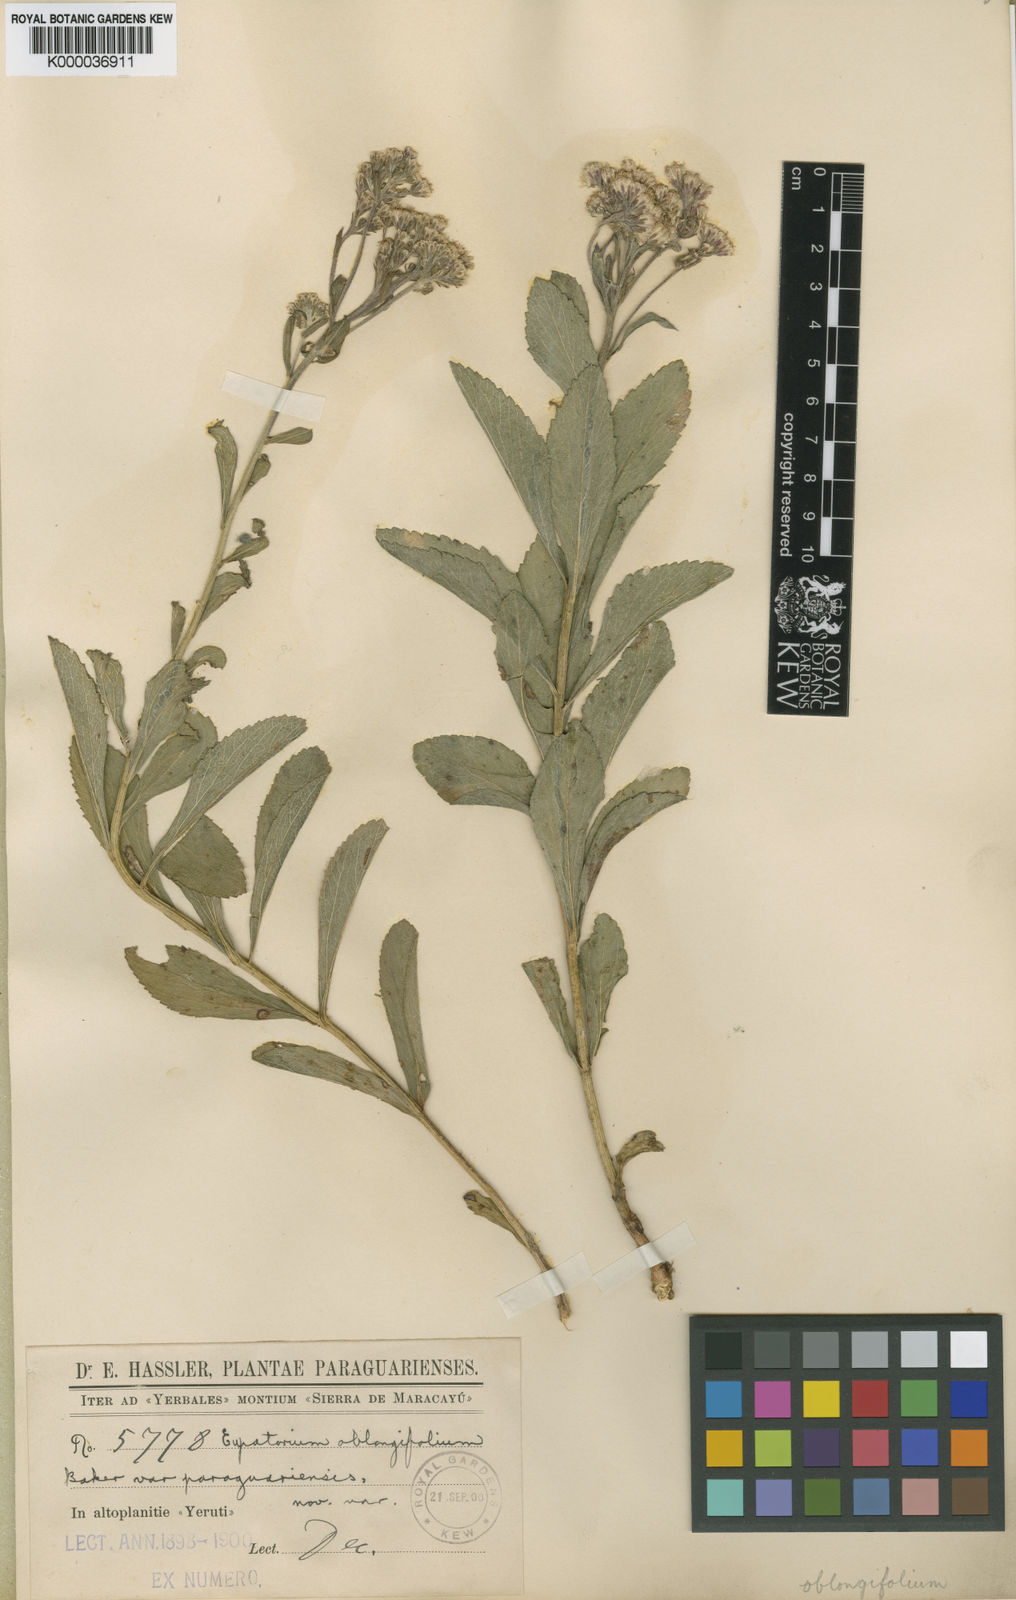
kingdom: Plantae
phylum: Tracheophyta
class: Magnoliopsida
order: Asterales
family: Asteraceae
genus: Gyptis
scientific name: Gyptis crassipes
